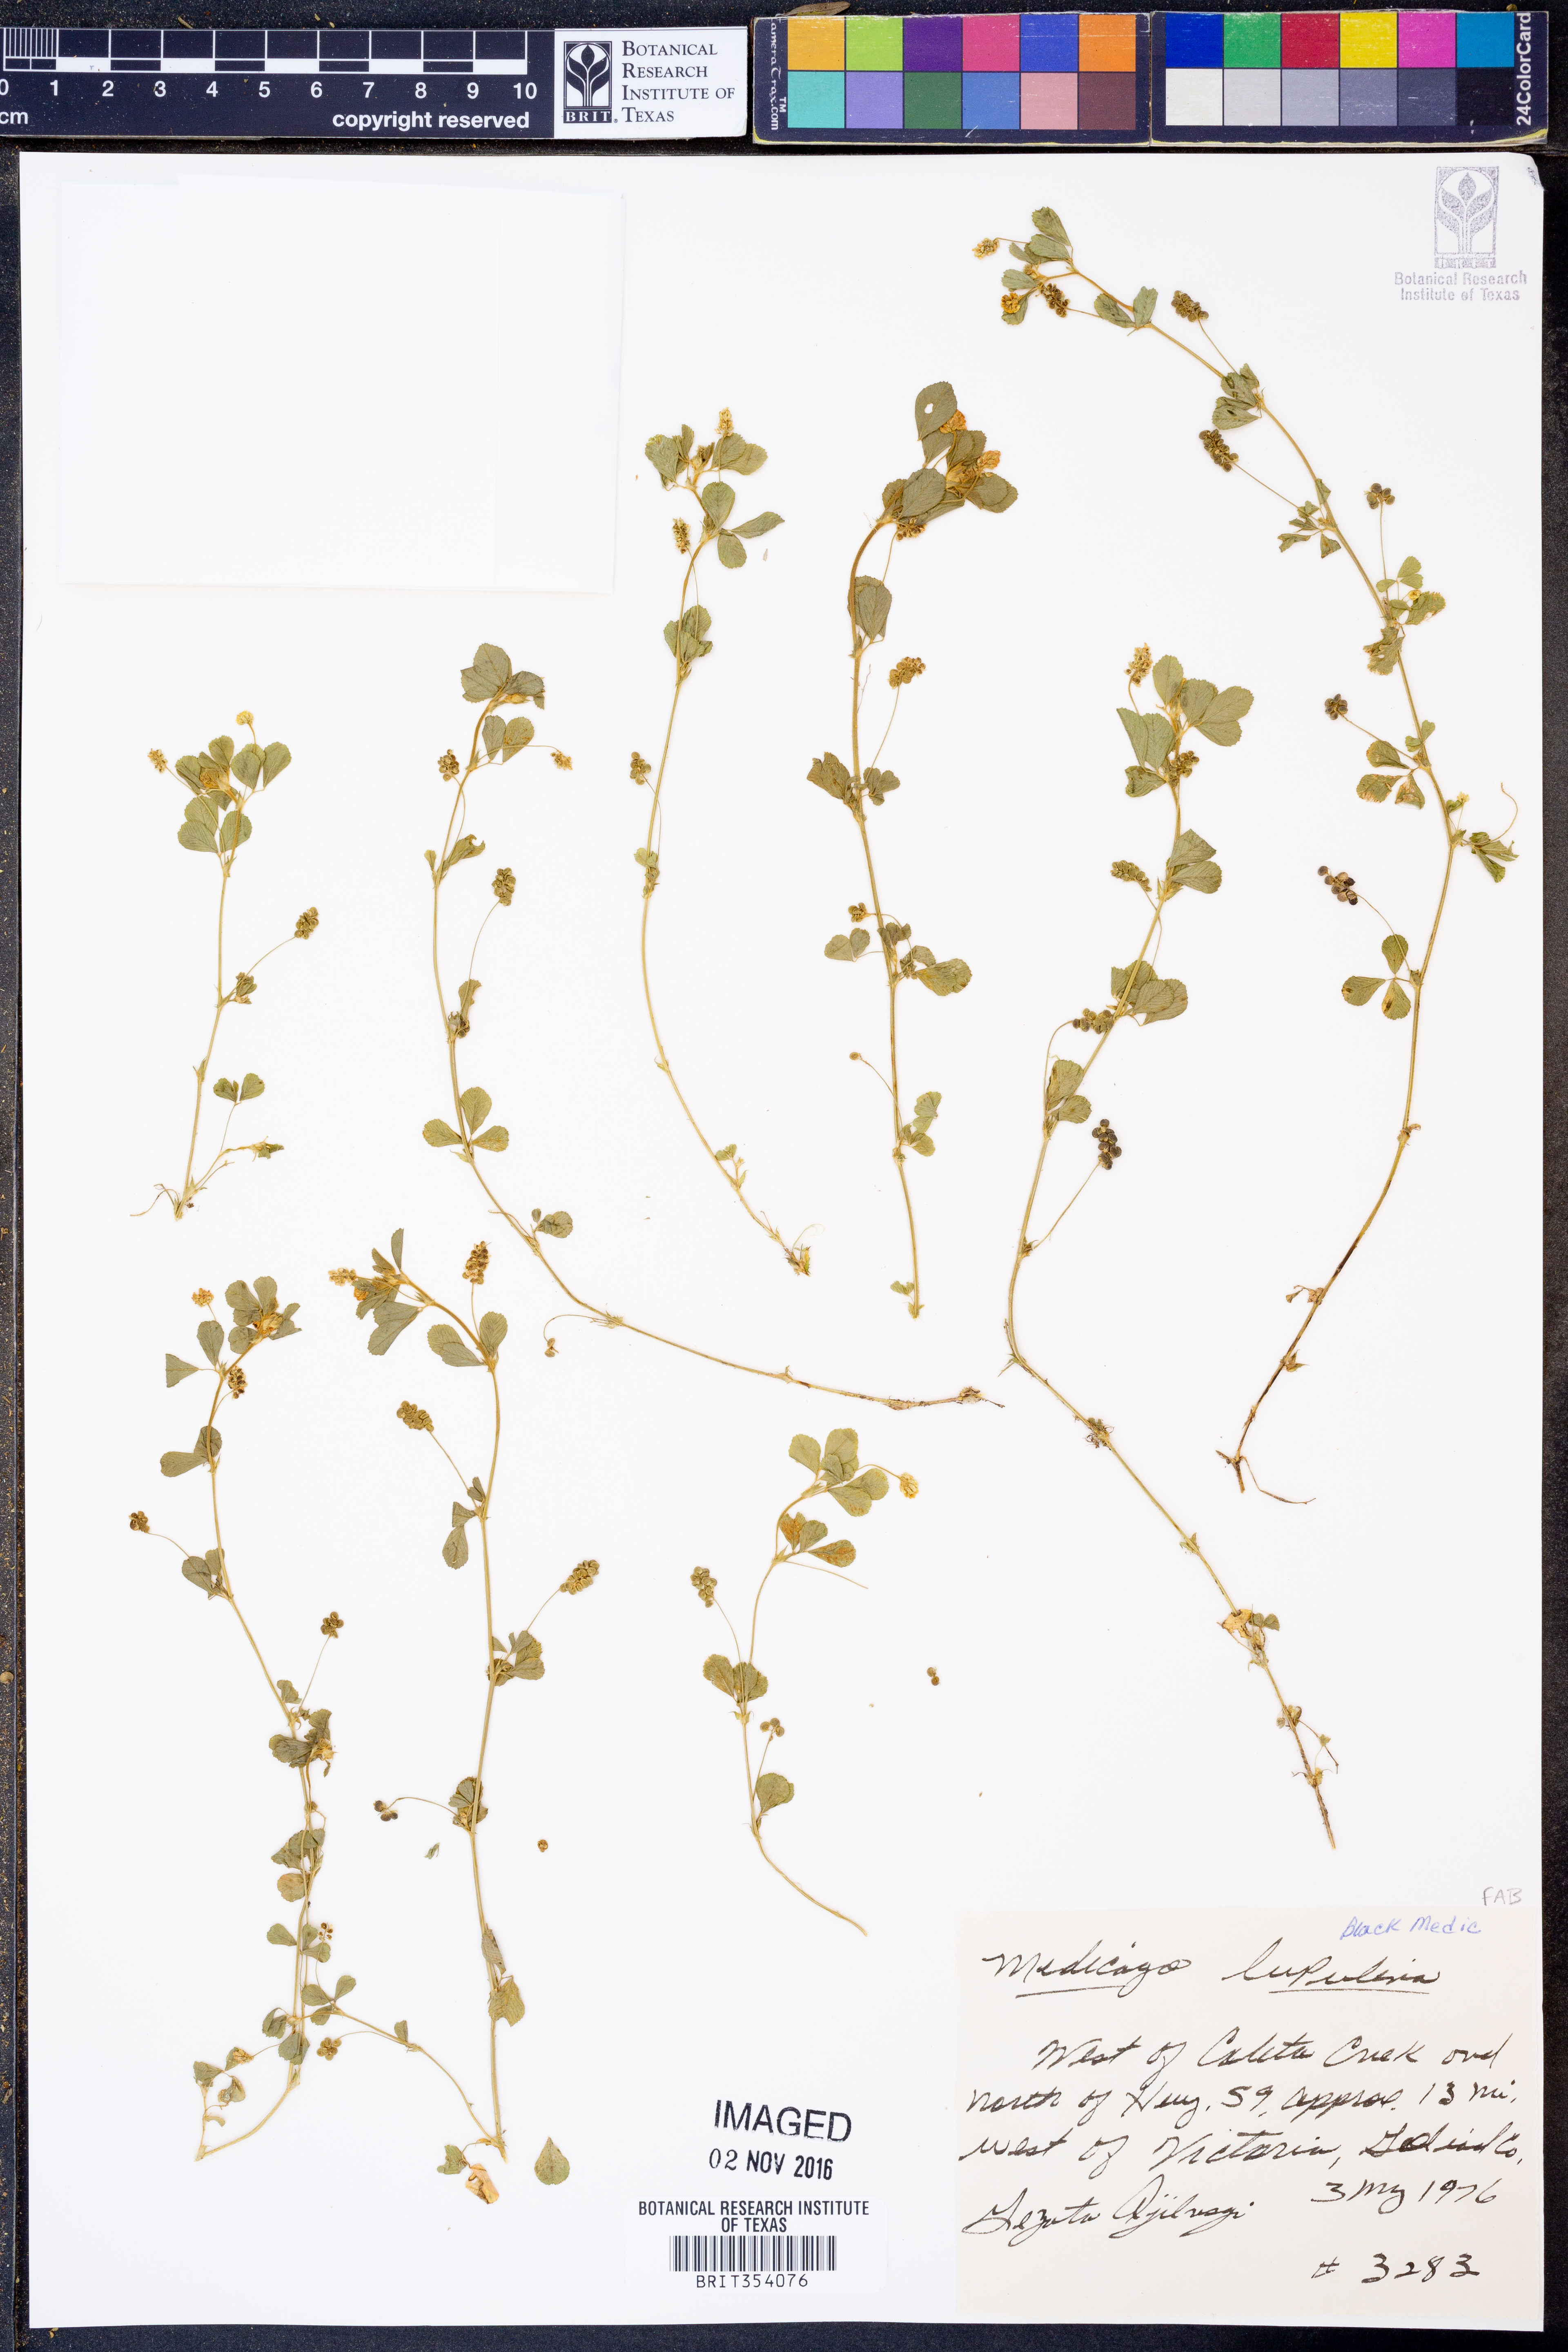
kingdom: Plantae
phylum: Tracheophyta
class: Magnoliopsida
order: Fabales
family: Fabaceae
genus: Medicago
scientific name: Medicago lupulina
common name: Black medick
